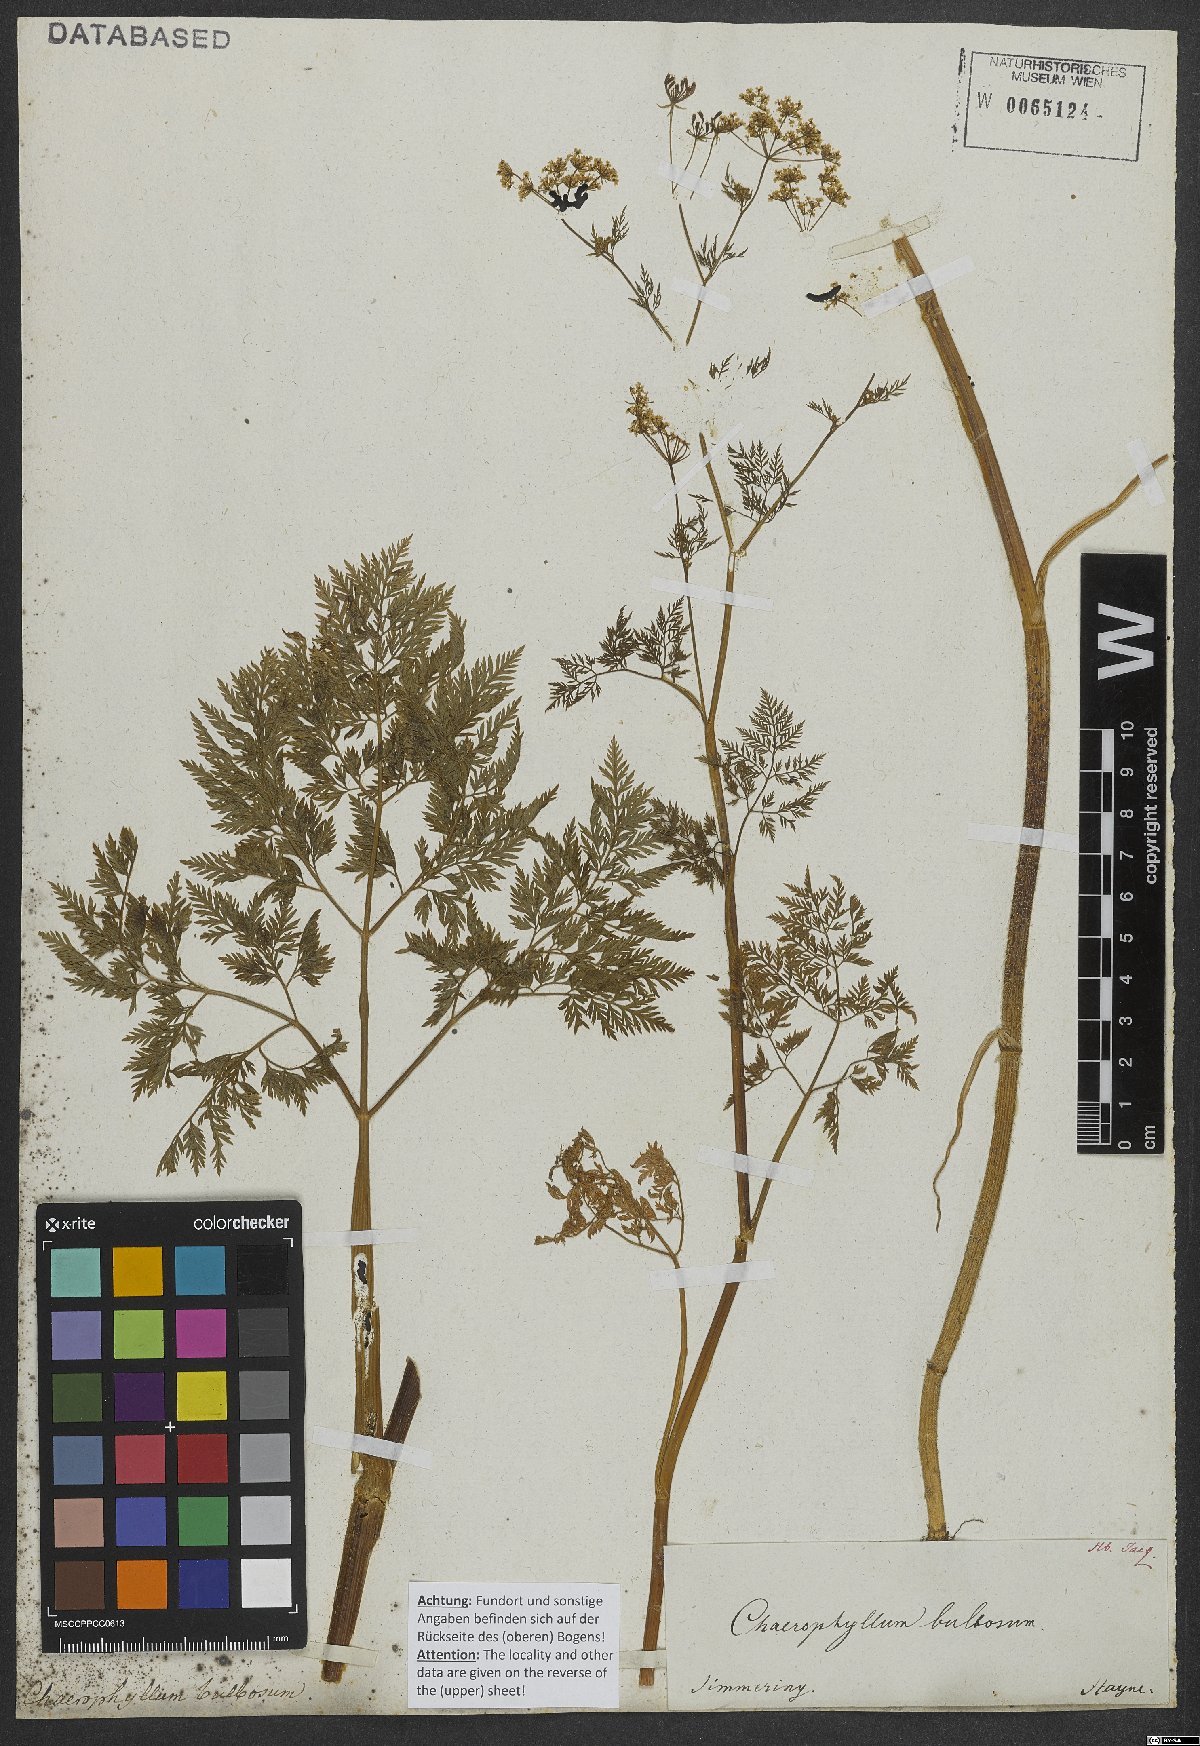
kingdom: Plantae
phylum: Tracheophyta
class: Magnoliopsida
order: Apiales
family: Apiaceae
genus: Chaerophyllum
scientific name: Chaerophyllum bulbosum
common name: Bulbous chervil
